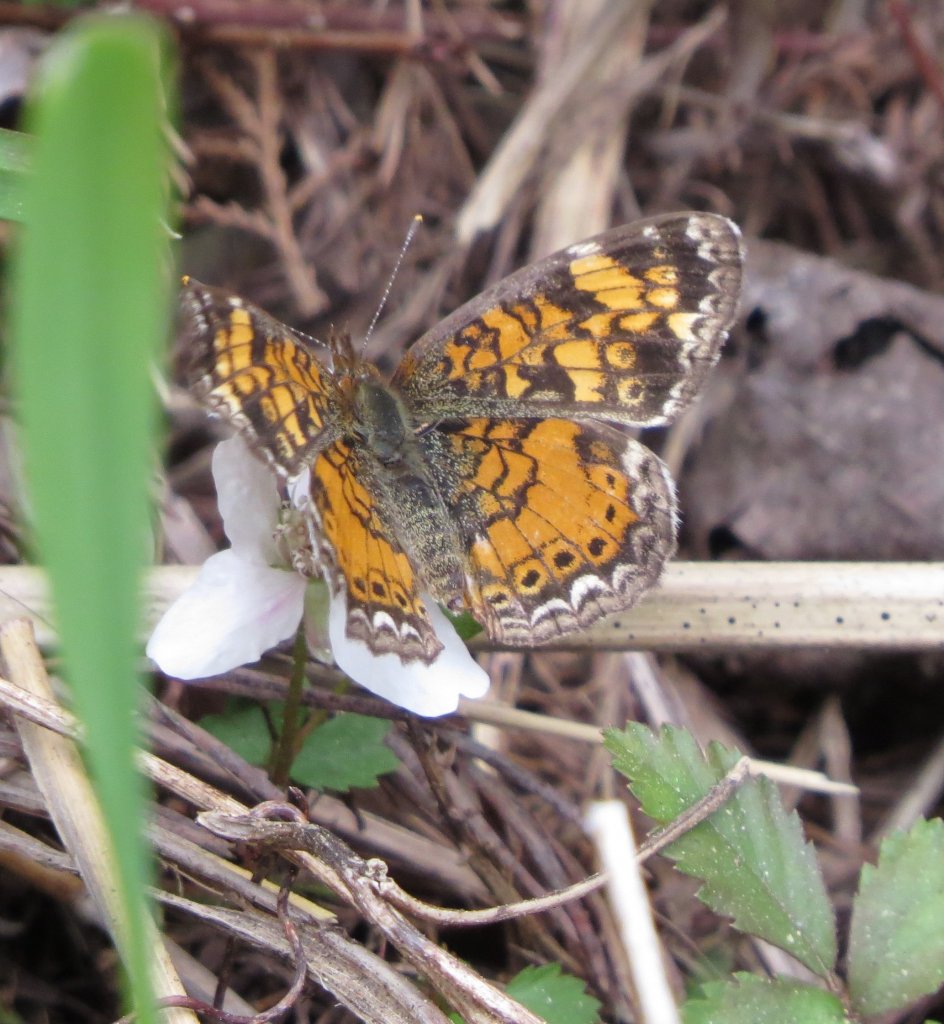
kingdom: Animalia
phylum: Arthropoda
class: Insecta
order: Lepidoptera
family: Nymphalidae
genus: Phyciodes
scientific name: Phyciodes tharos
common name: Pearl Crescent
